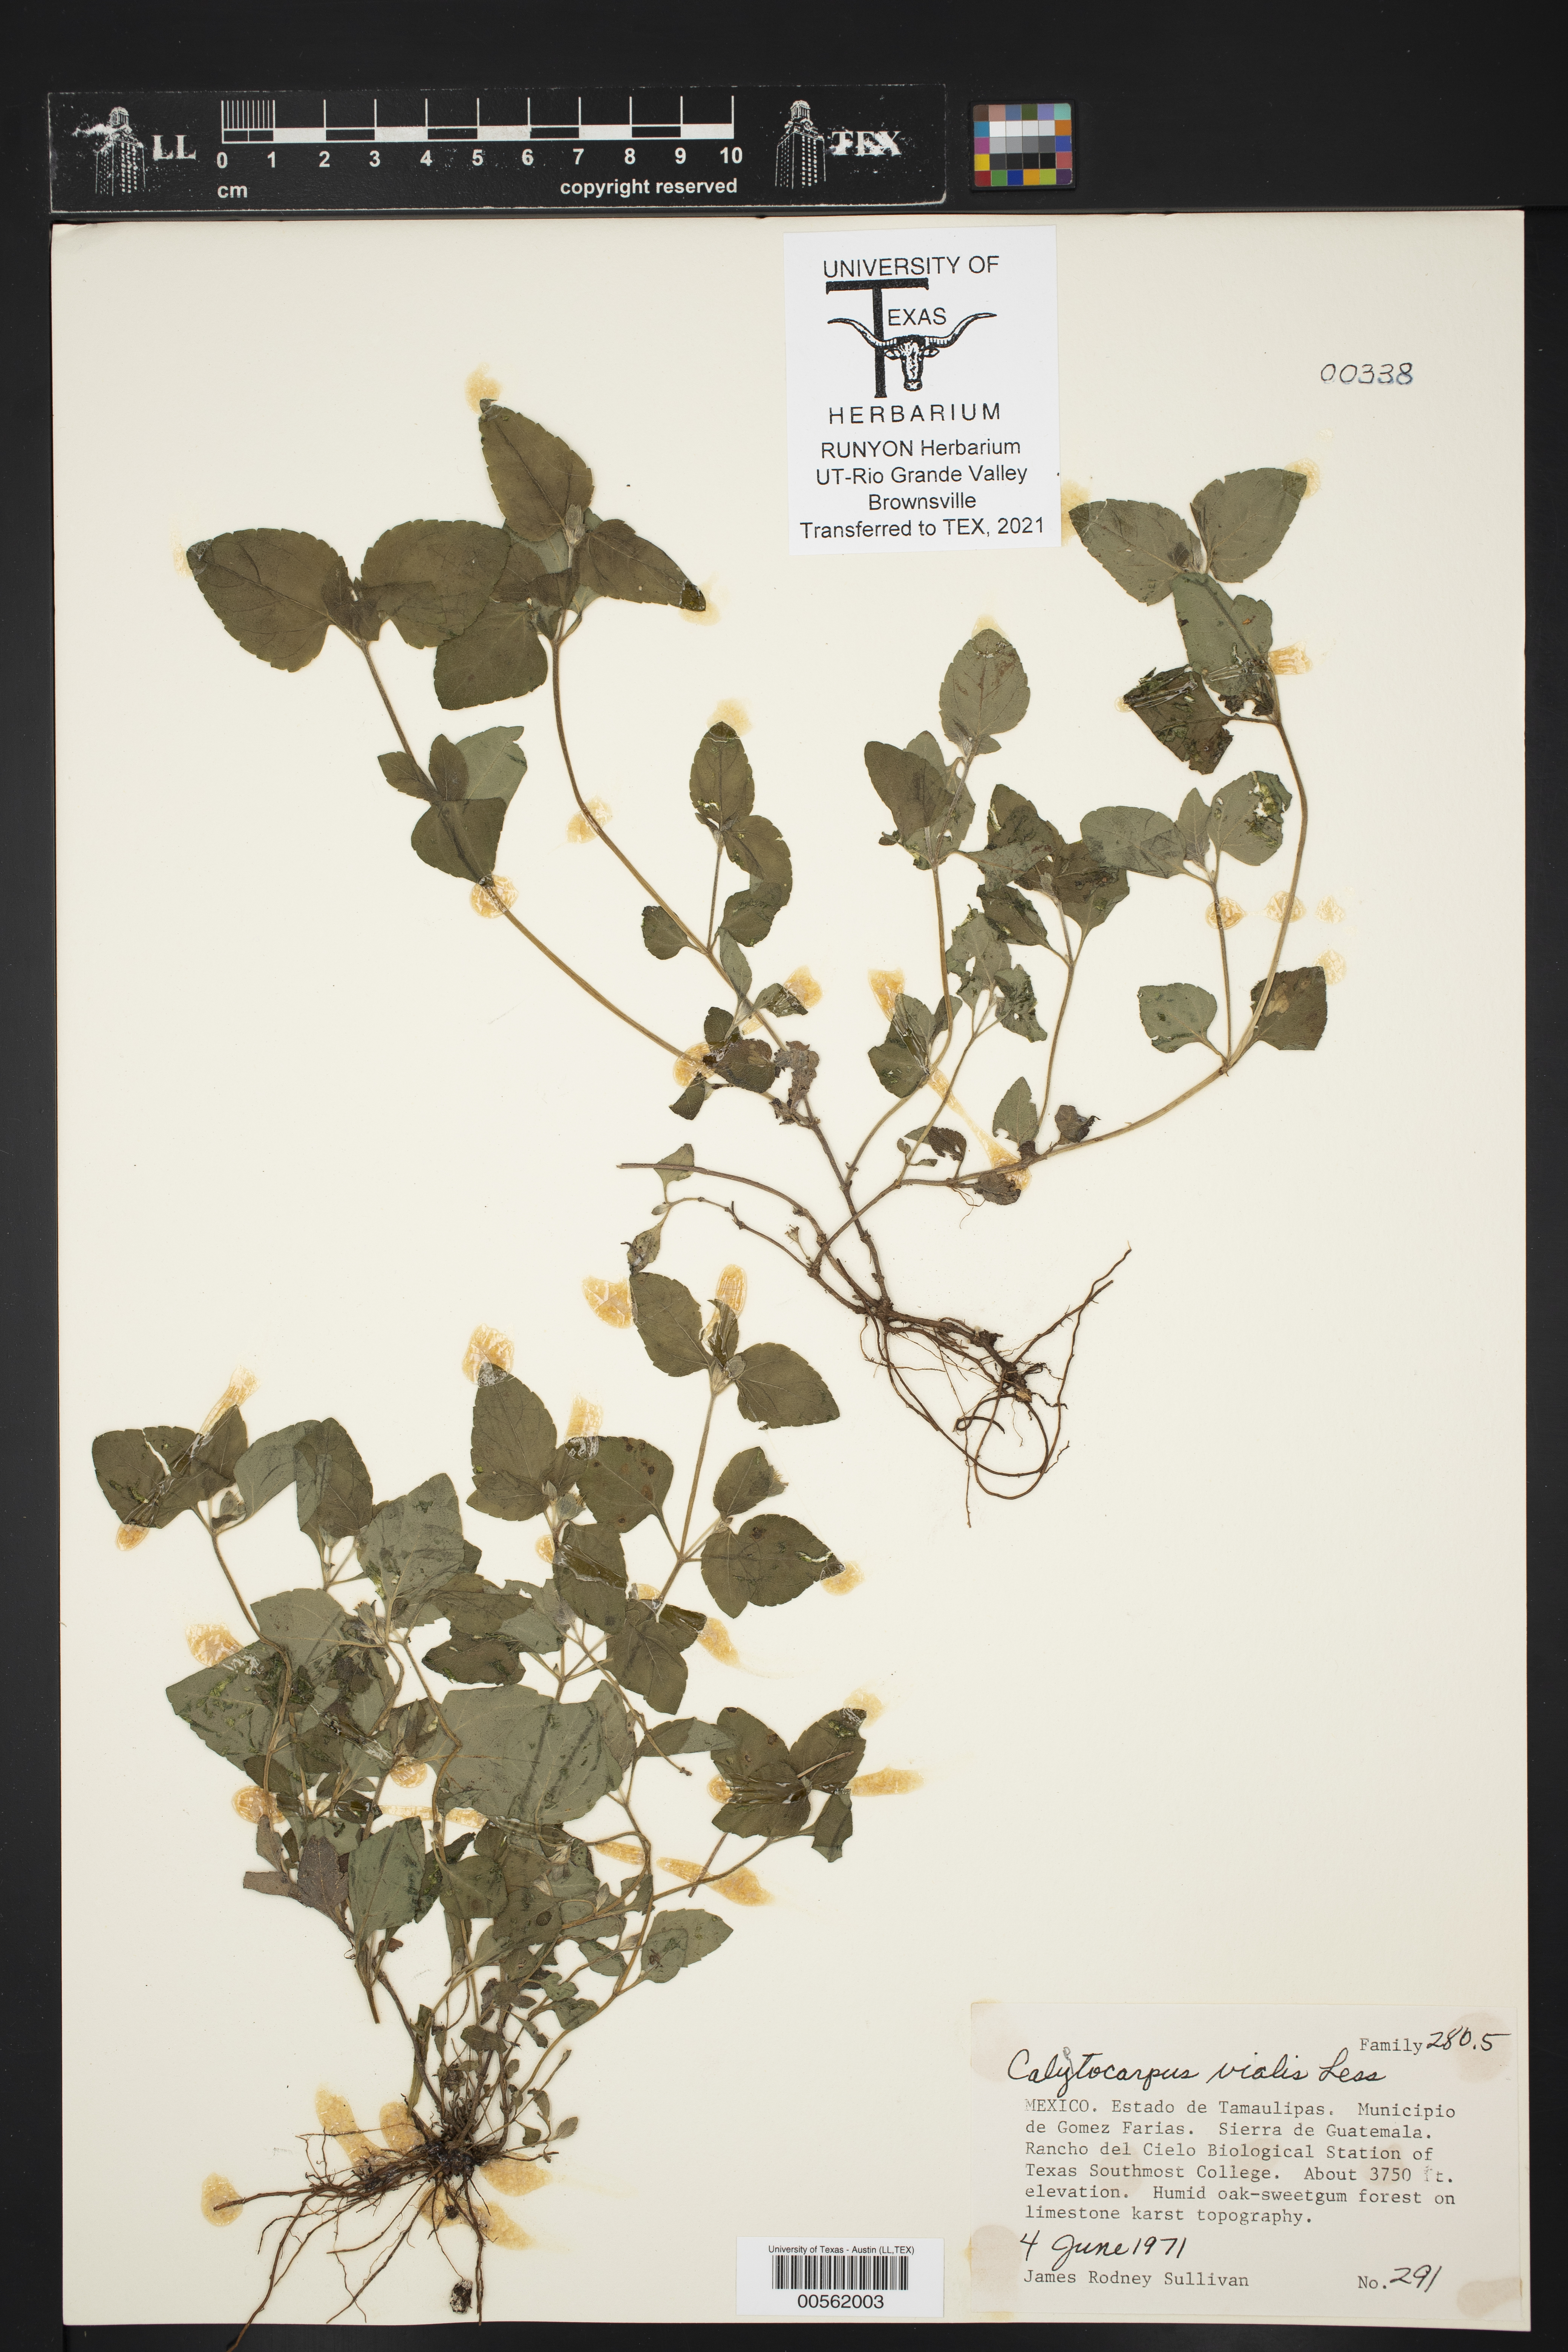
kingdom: Plantae
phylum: Tracheophyta
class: Magnoliopsida
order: Asterales
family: Asteraceae
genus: Calyptocarpus
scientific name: Calyptocarpus vialis
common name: Straggler daisy
